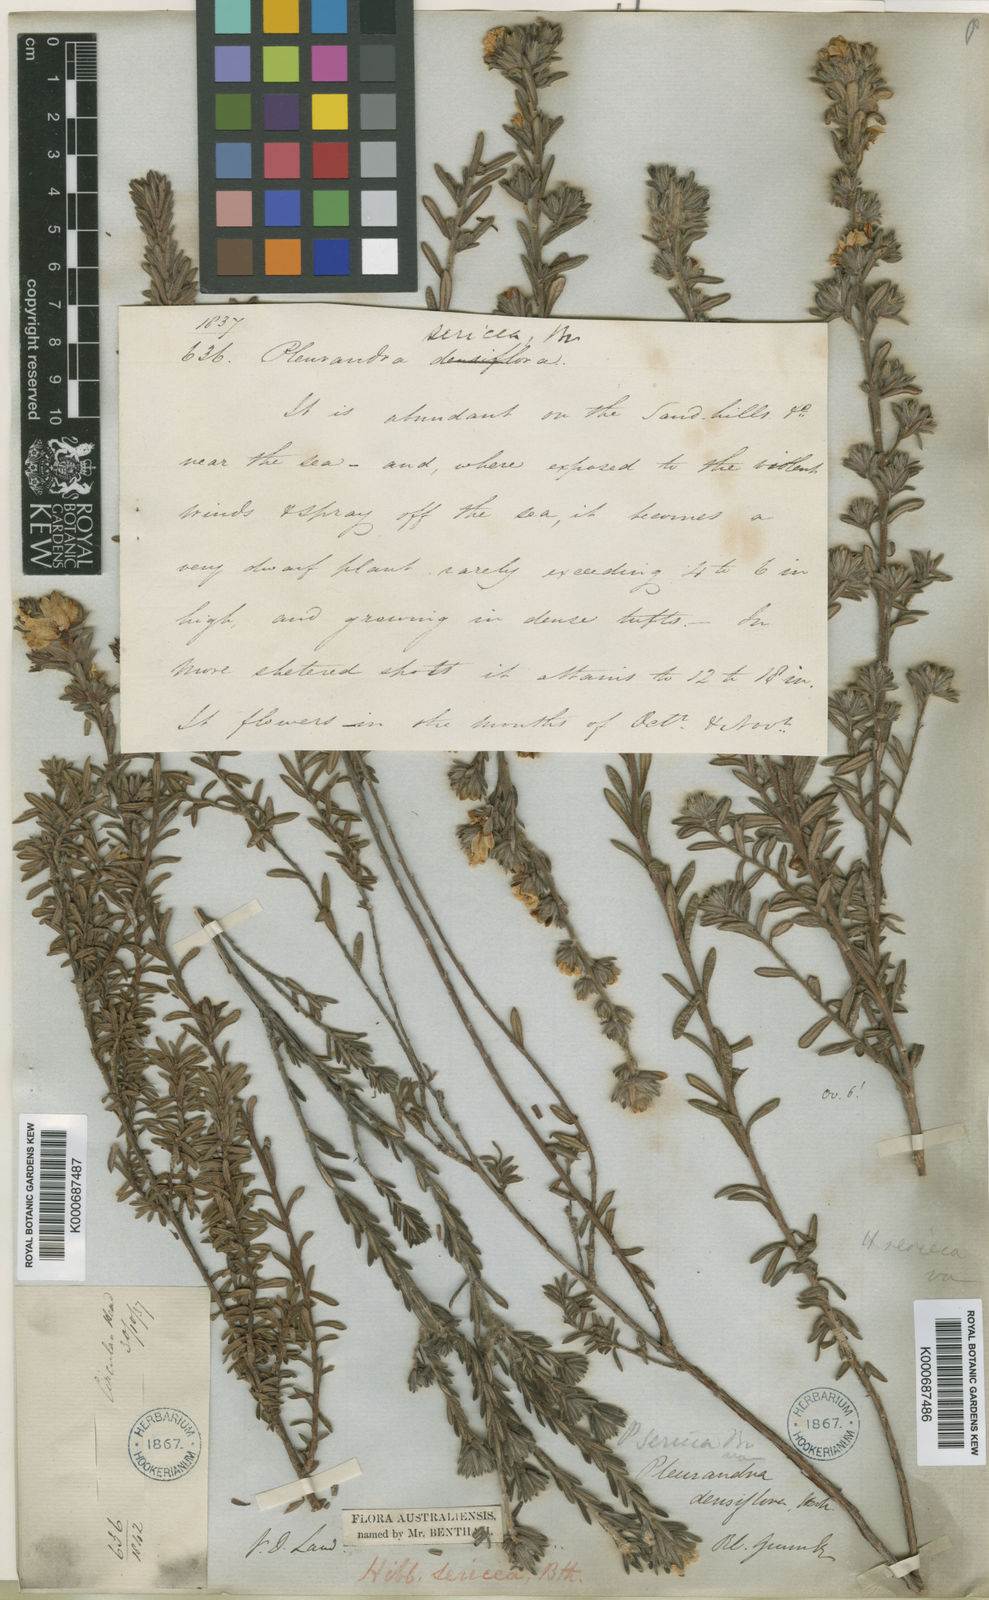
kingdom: Plantae
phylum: Tracheophyta
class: Magnoliopsida
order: Dilleniales
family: Dilleniaceae
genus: Hibbertia
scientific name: Hibbertia sericea
